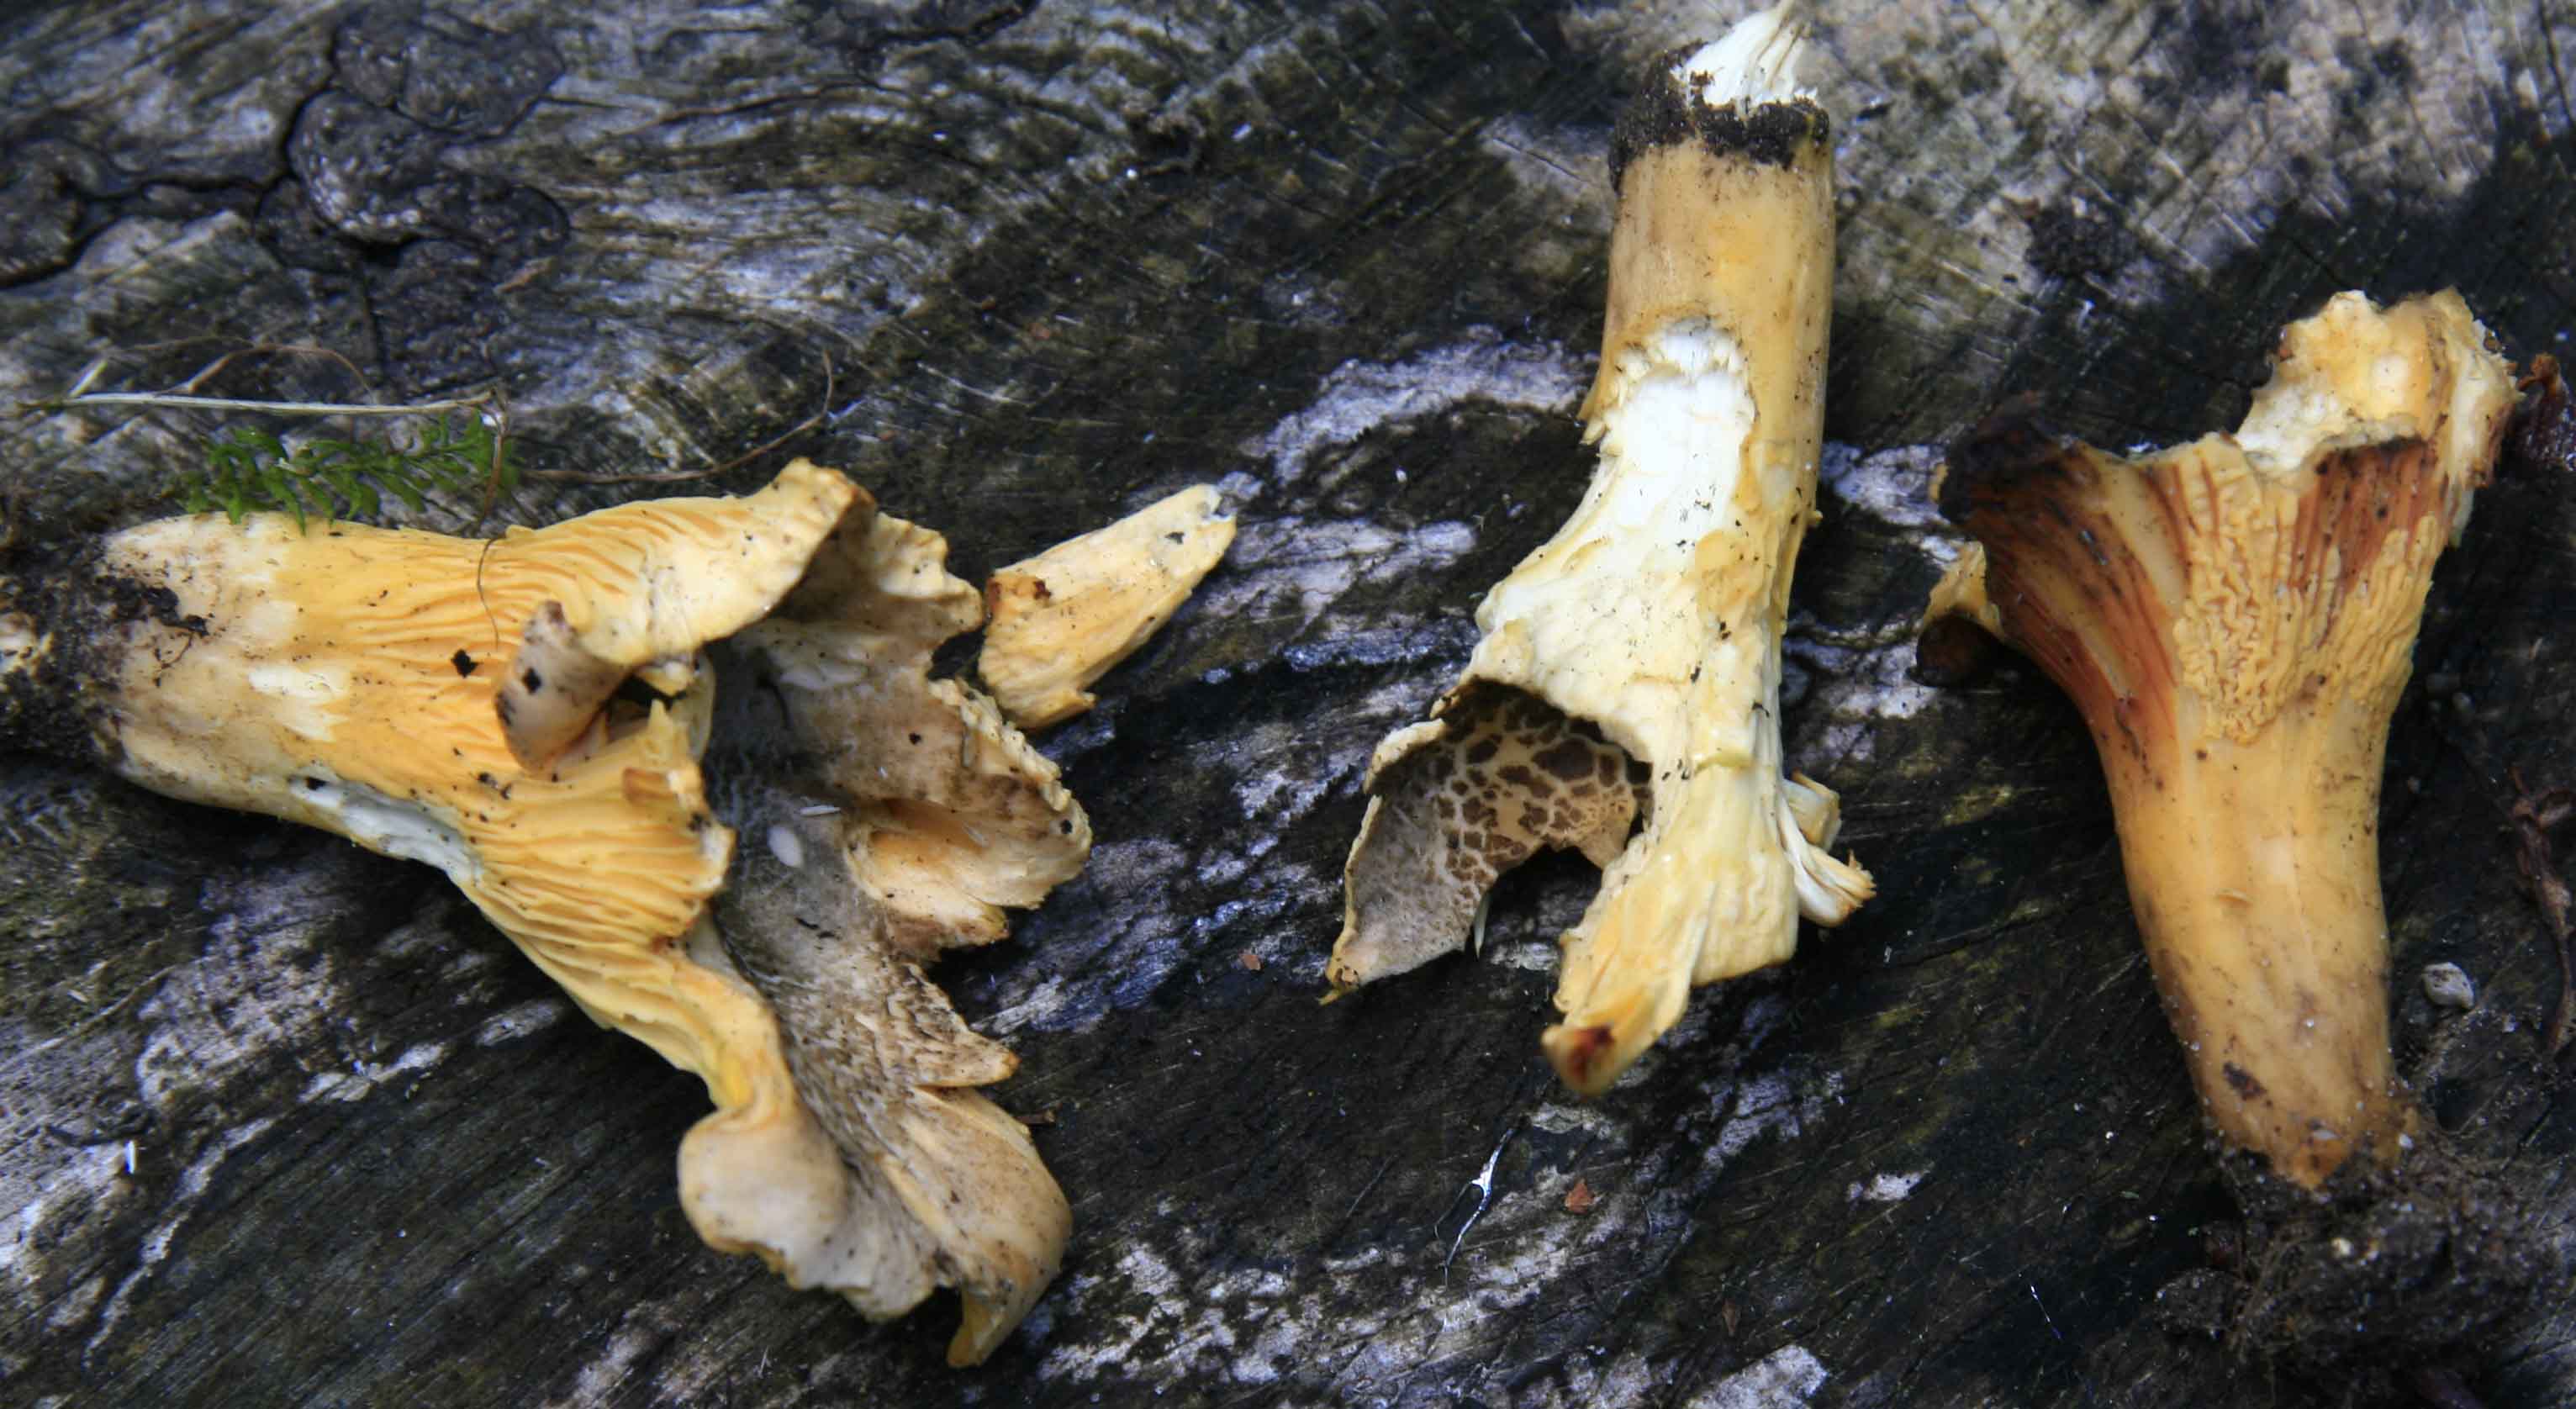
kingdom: Fungi
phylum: Basidiomycota
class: Agaricomycetes
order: Cantharellales
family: Hydnaceae
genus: Cantharellus
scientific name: Cantharellus amethysteus
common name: ametyst-kantarel
